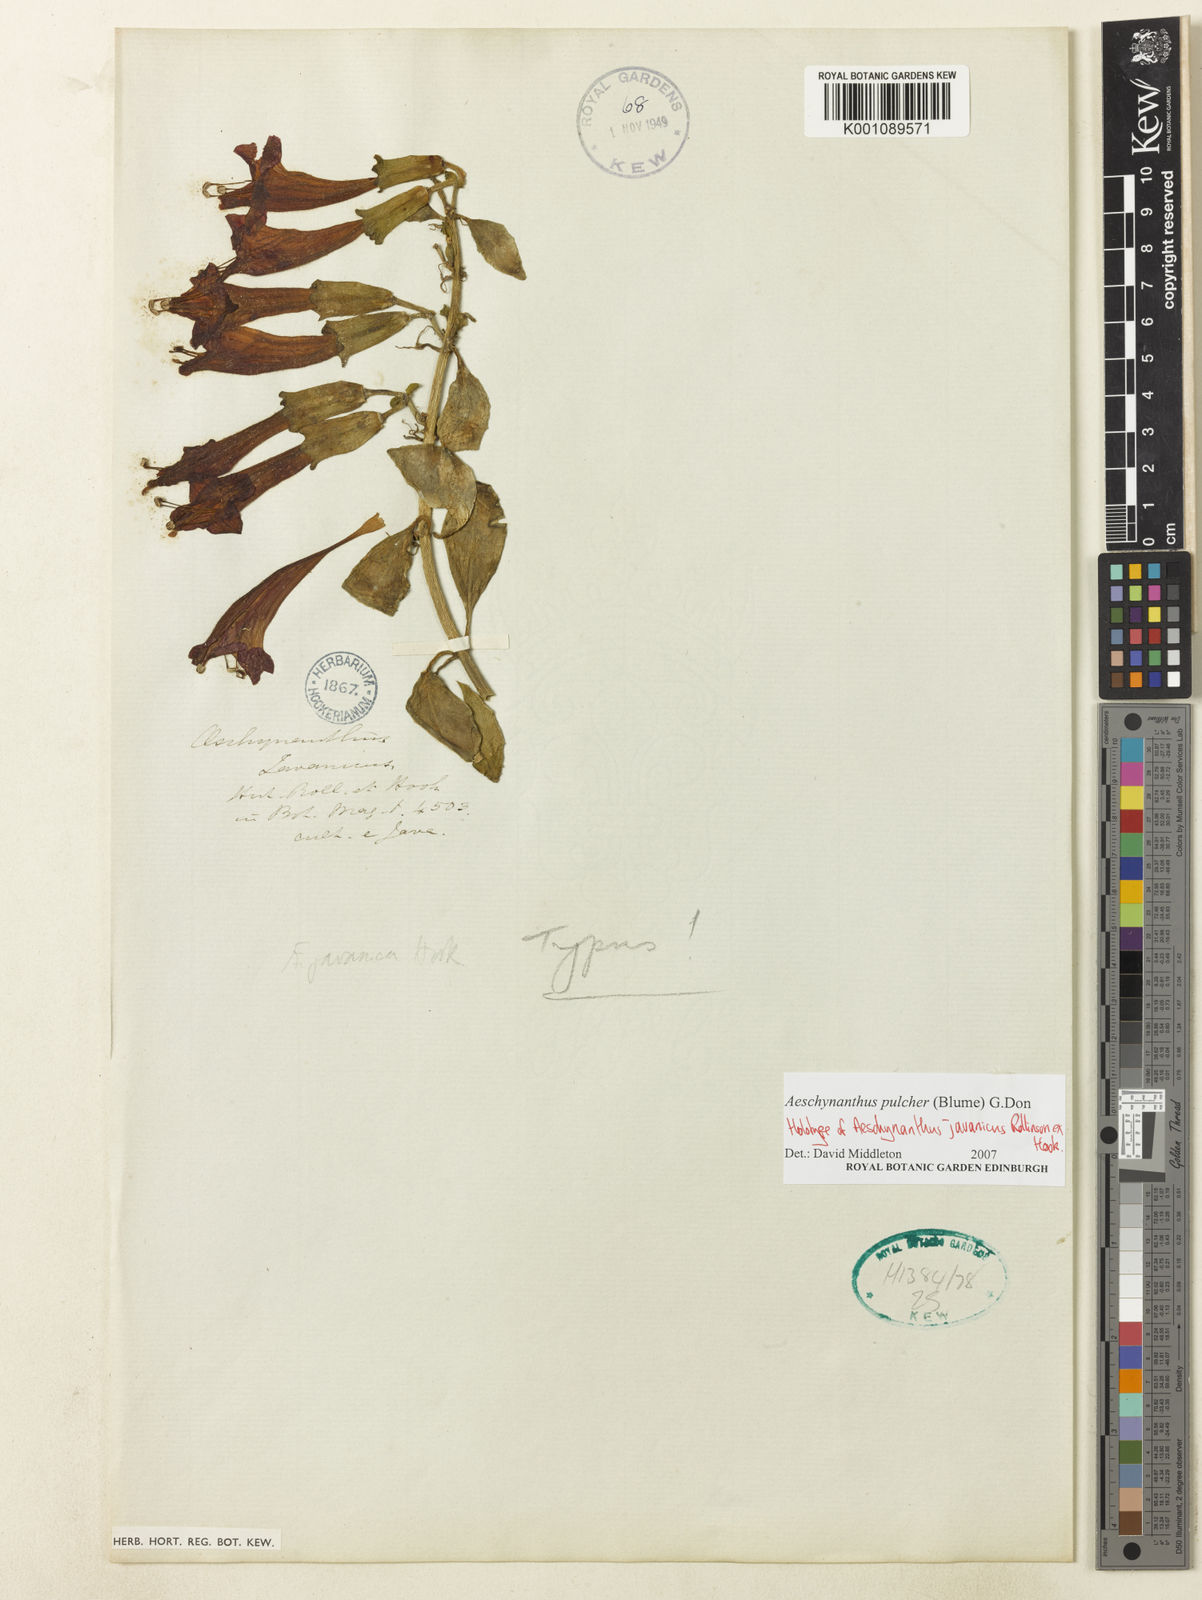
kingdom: Plantae
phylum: Tracheophyta
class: Magnoliopsida
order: Lamiales
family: Gesneriaceae
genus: Aeschynanthus
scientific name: Aeschynanthus pulcher
